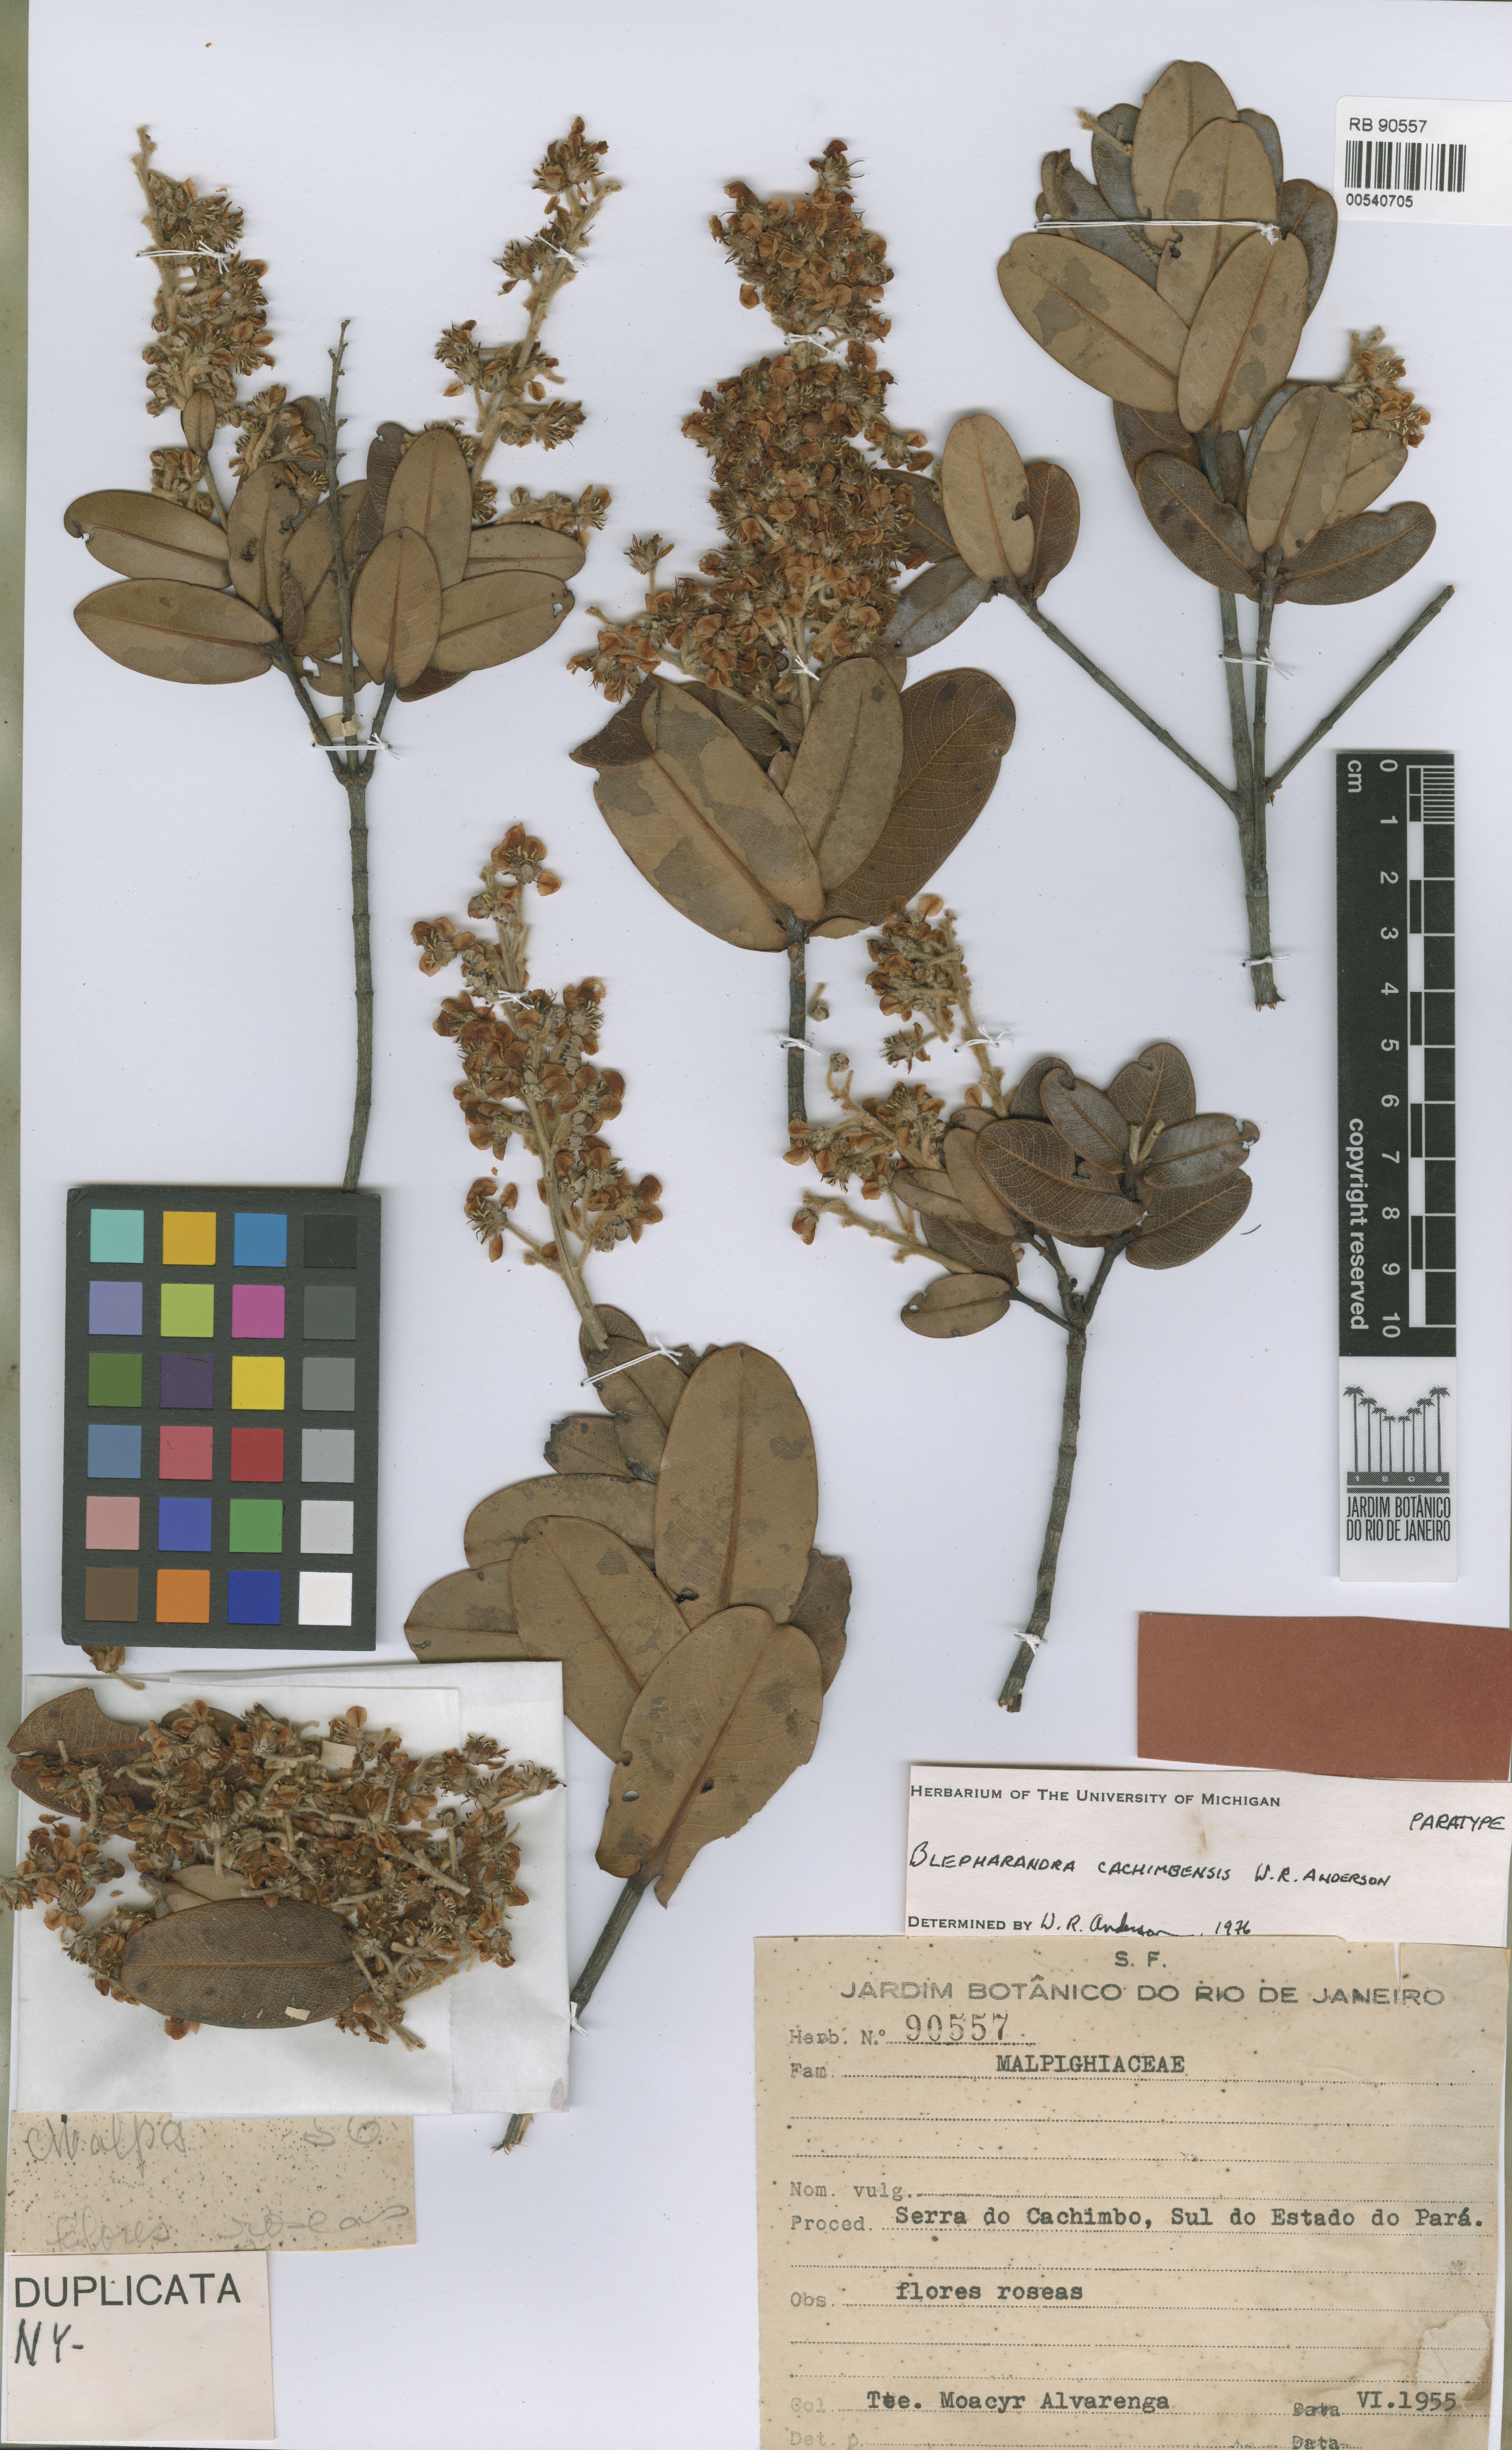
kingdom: Plantae
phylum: Tracheophyta
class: Magnoliopsida
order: Malpighiales
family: Malpighiaceae
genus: Blepharandra
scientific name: Blepharandra cachimbensis
